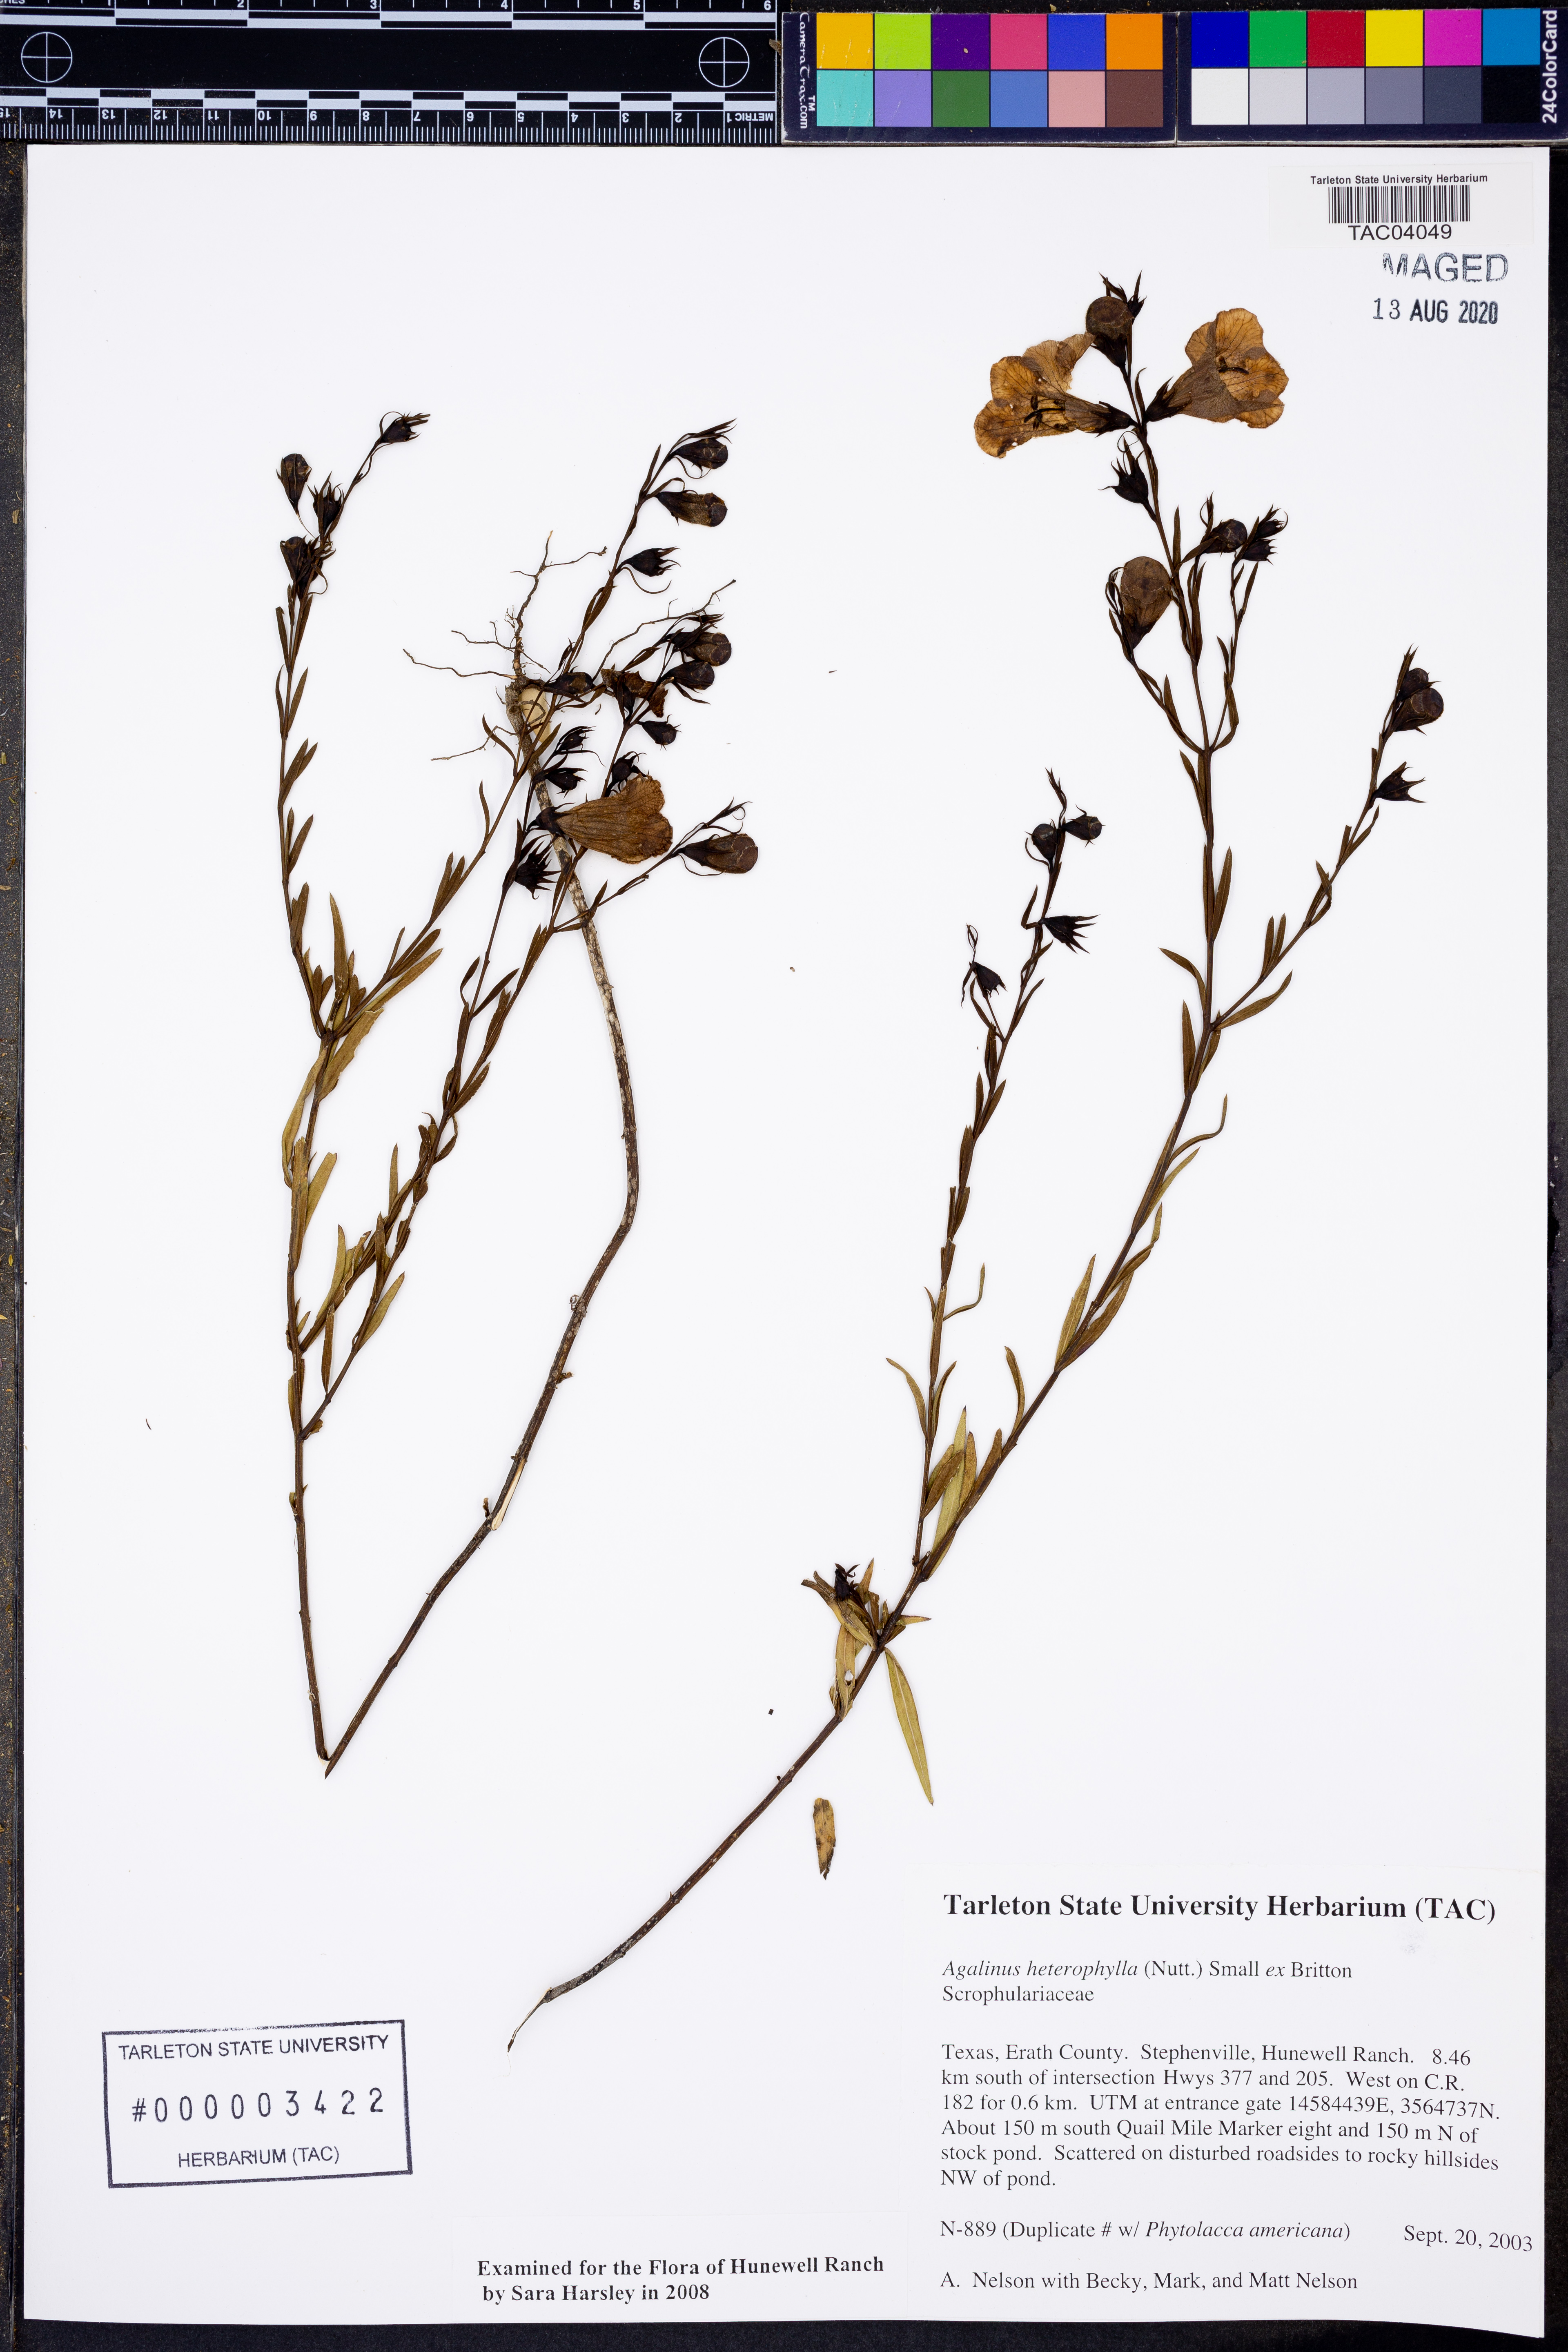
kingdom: Plantae
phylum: Tracheophyta
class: Magnoliopsida
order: Lamiales
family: Orobanchaceae
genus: Agalinis
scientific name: Agalinis heterophylla
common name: Prairie agalinis
